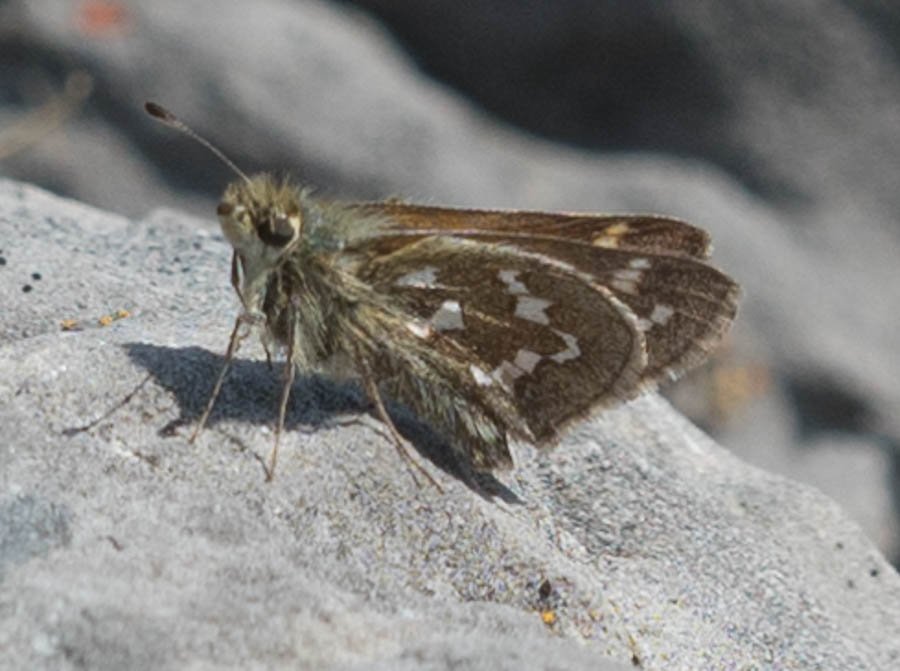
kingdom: Animalia
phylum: Arthropoda
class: Insecta
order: Lepidoptera
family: Hesperiidae
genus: Hesperia
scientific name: Hesperia comma
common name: Common Branded Skipper
